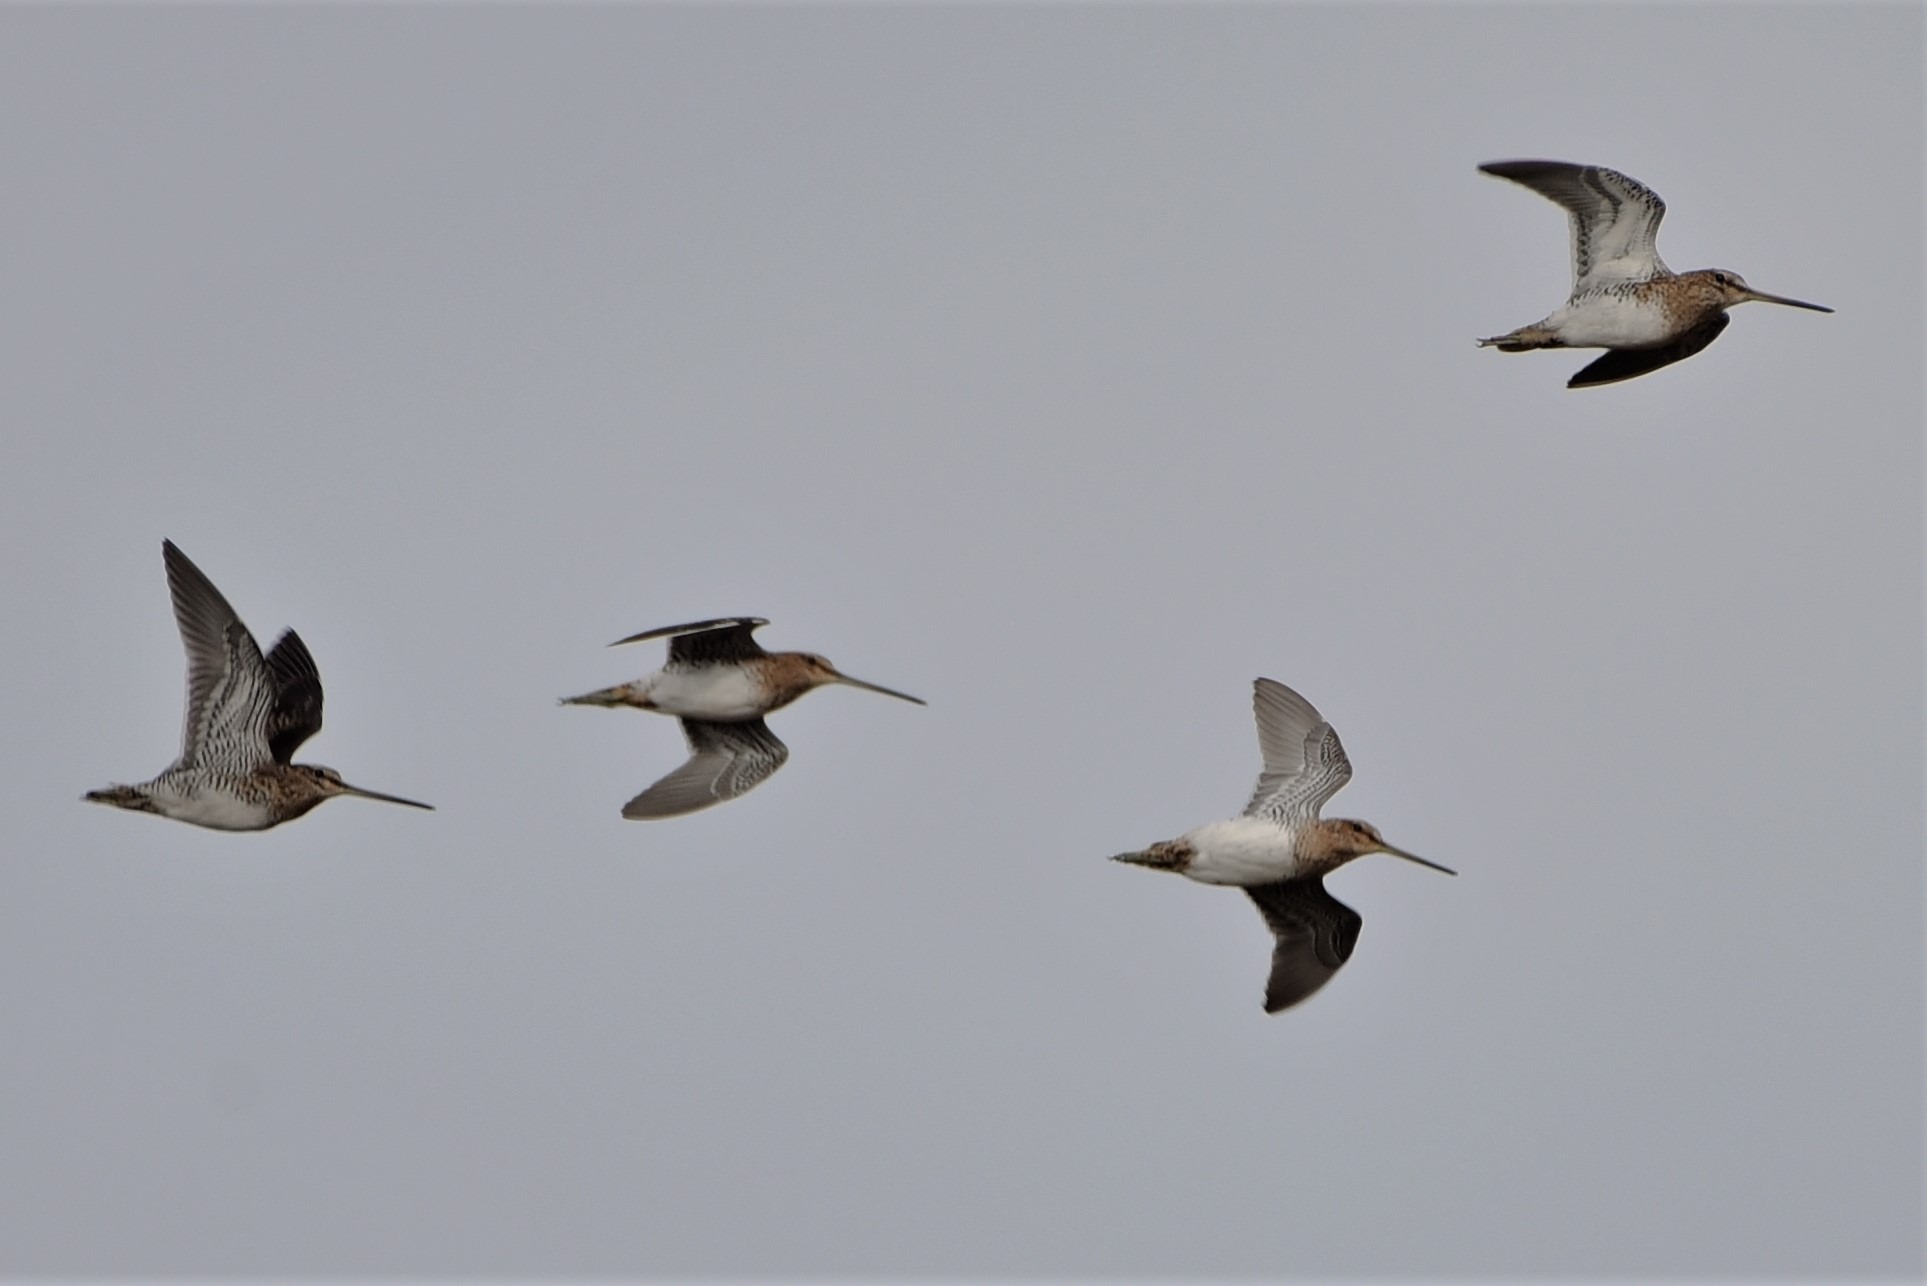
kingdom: Animalia
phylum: Chordata
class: Aves
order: Charadriiformes
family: Scolopacidae
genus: Gallinago
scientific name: Gallinago gallinago
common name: Dobbeltbekkasin
